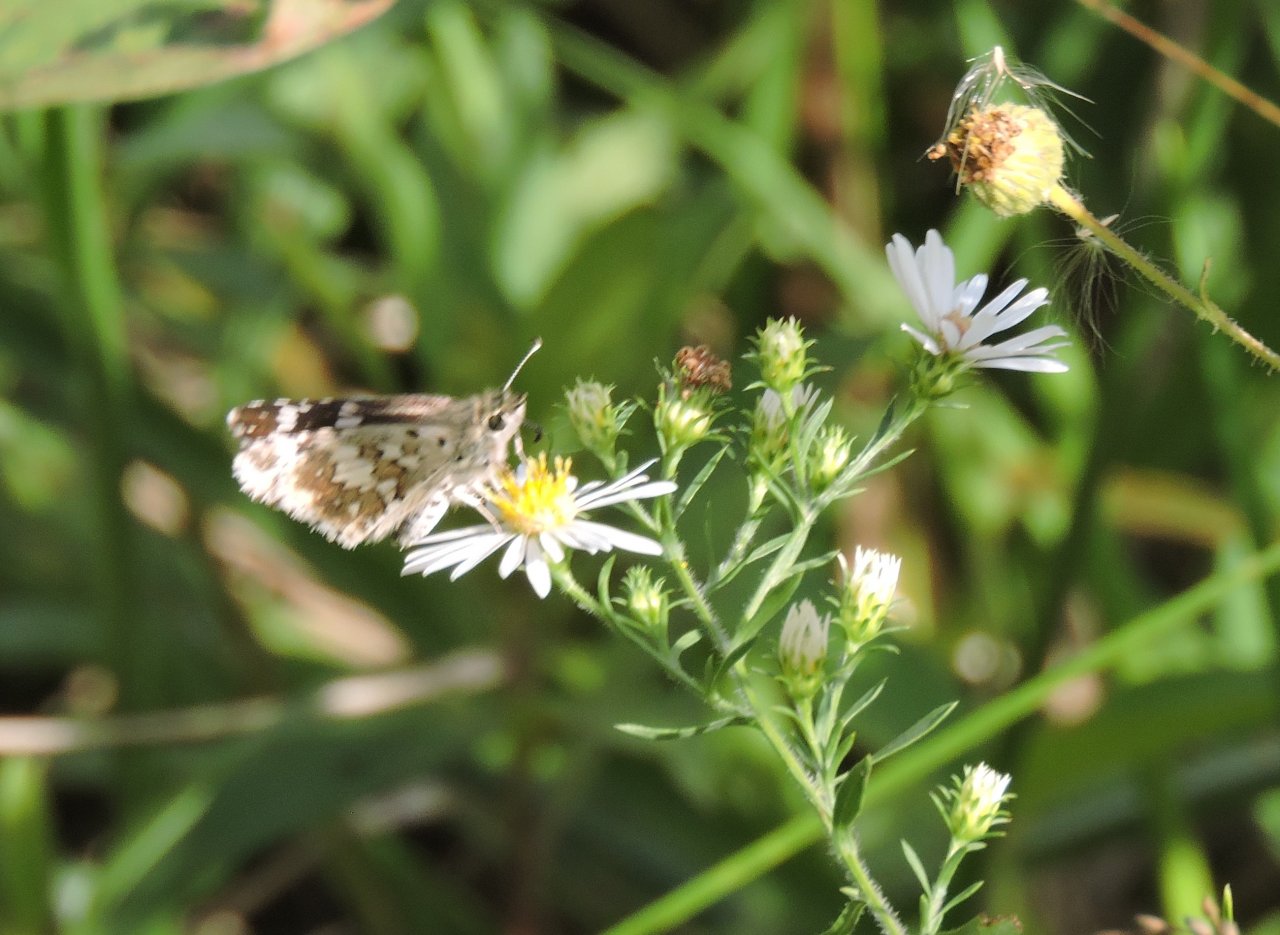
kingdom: Animalia
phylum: Arthropoda
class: Insecta
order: Lepidoptera
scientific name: Lepidoptera
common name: Butterflies
